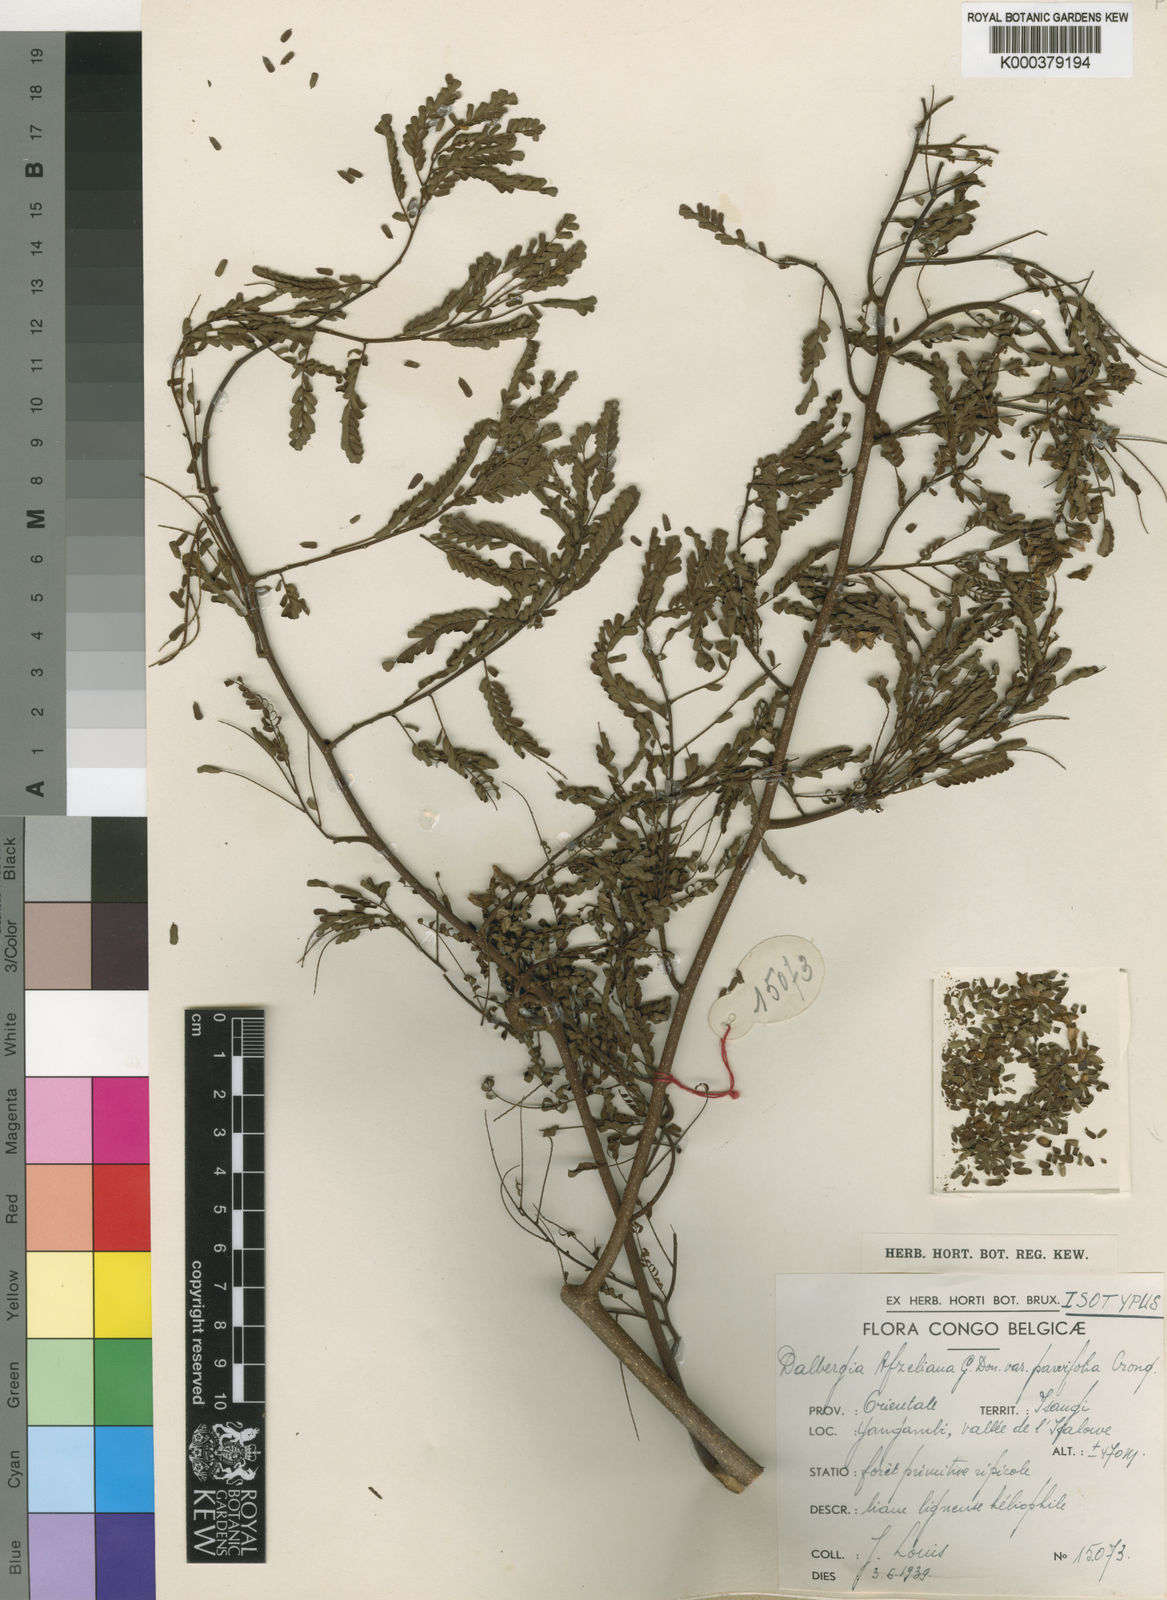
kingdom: Plantae
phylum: Tracheophyta
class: Magnoliopsida
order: Fabales
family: Fabaceae
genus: Dalbergia
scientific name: Dalbergia afzeliana
